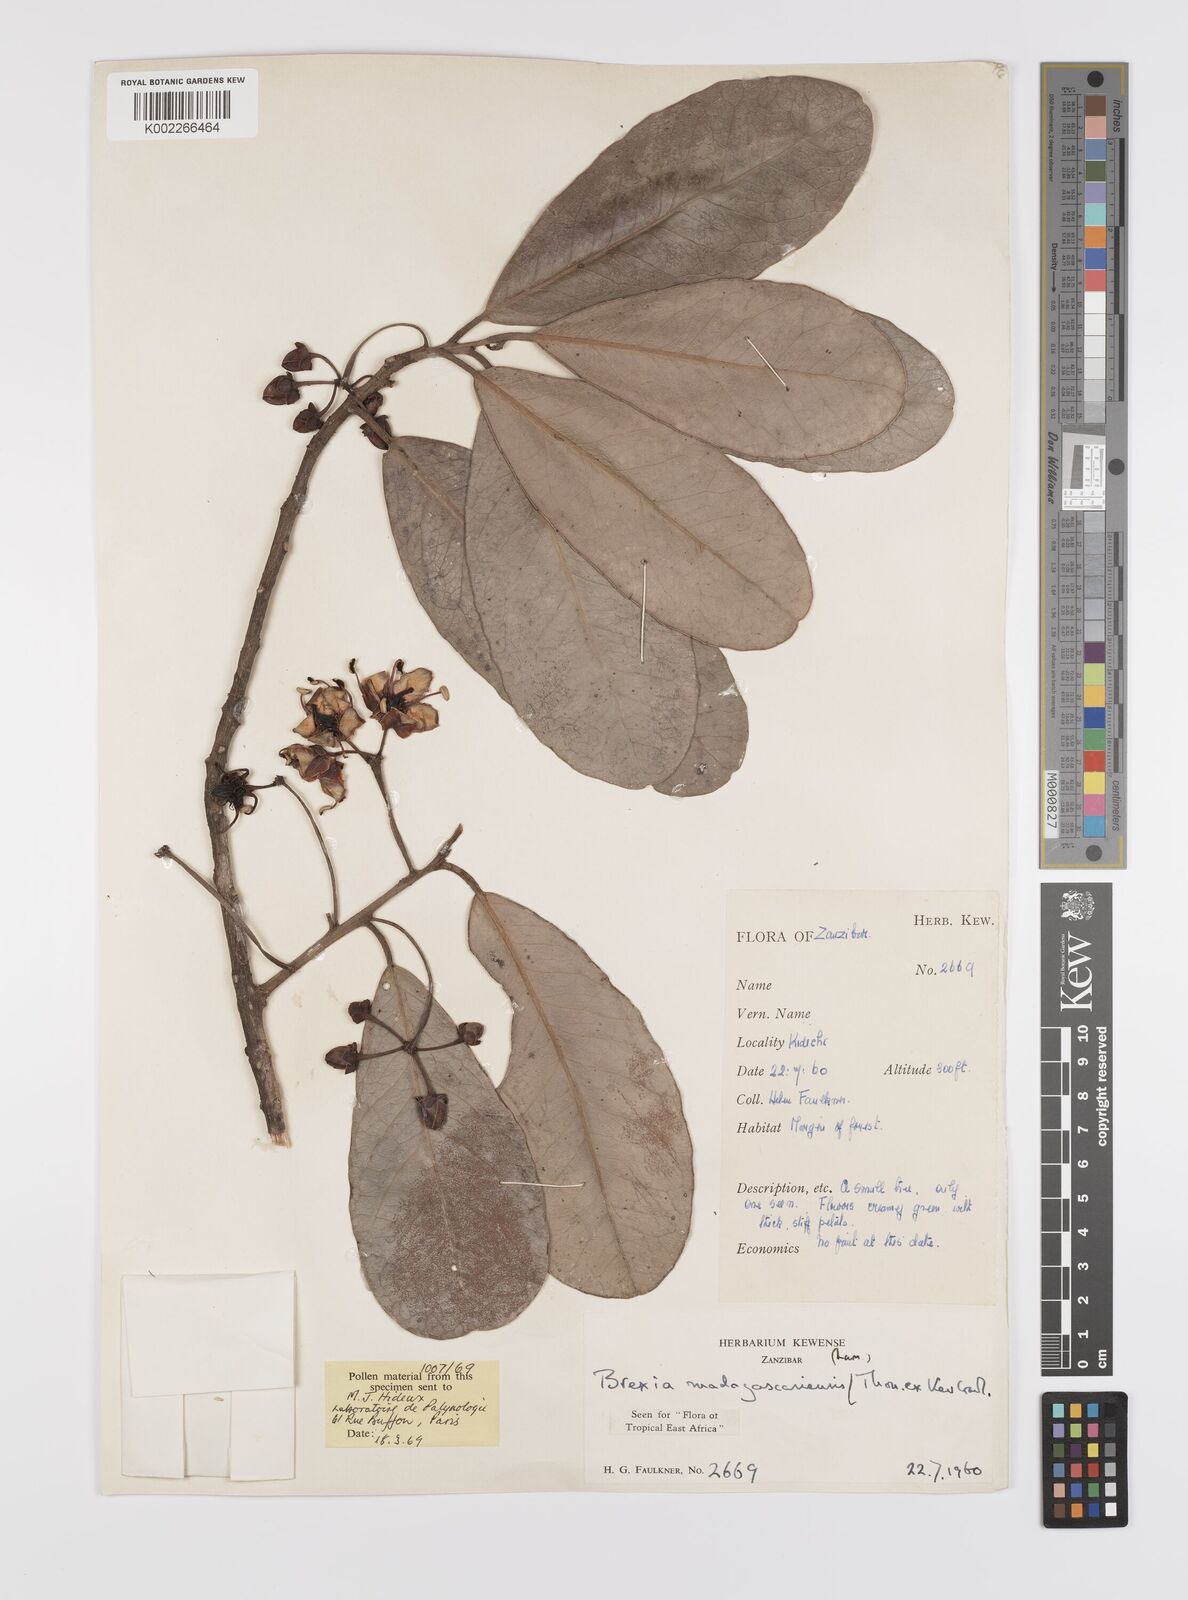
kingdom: Plantae
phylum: Tracheophyta
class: Magnoliopsida
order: Celastrales
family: Celastraceae
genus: Brexia
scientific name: Brexia madagascariensis
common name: Brexia
